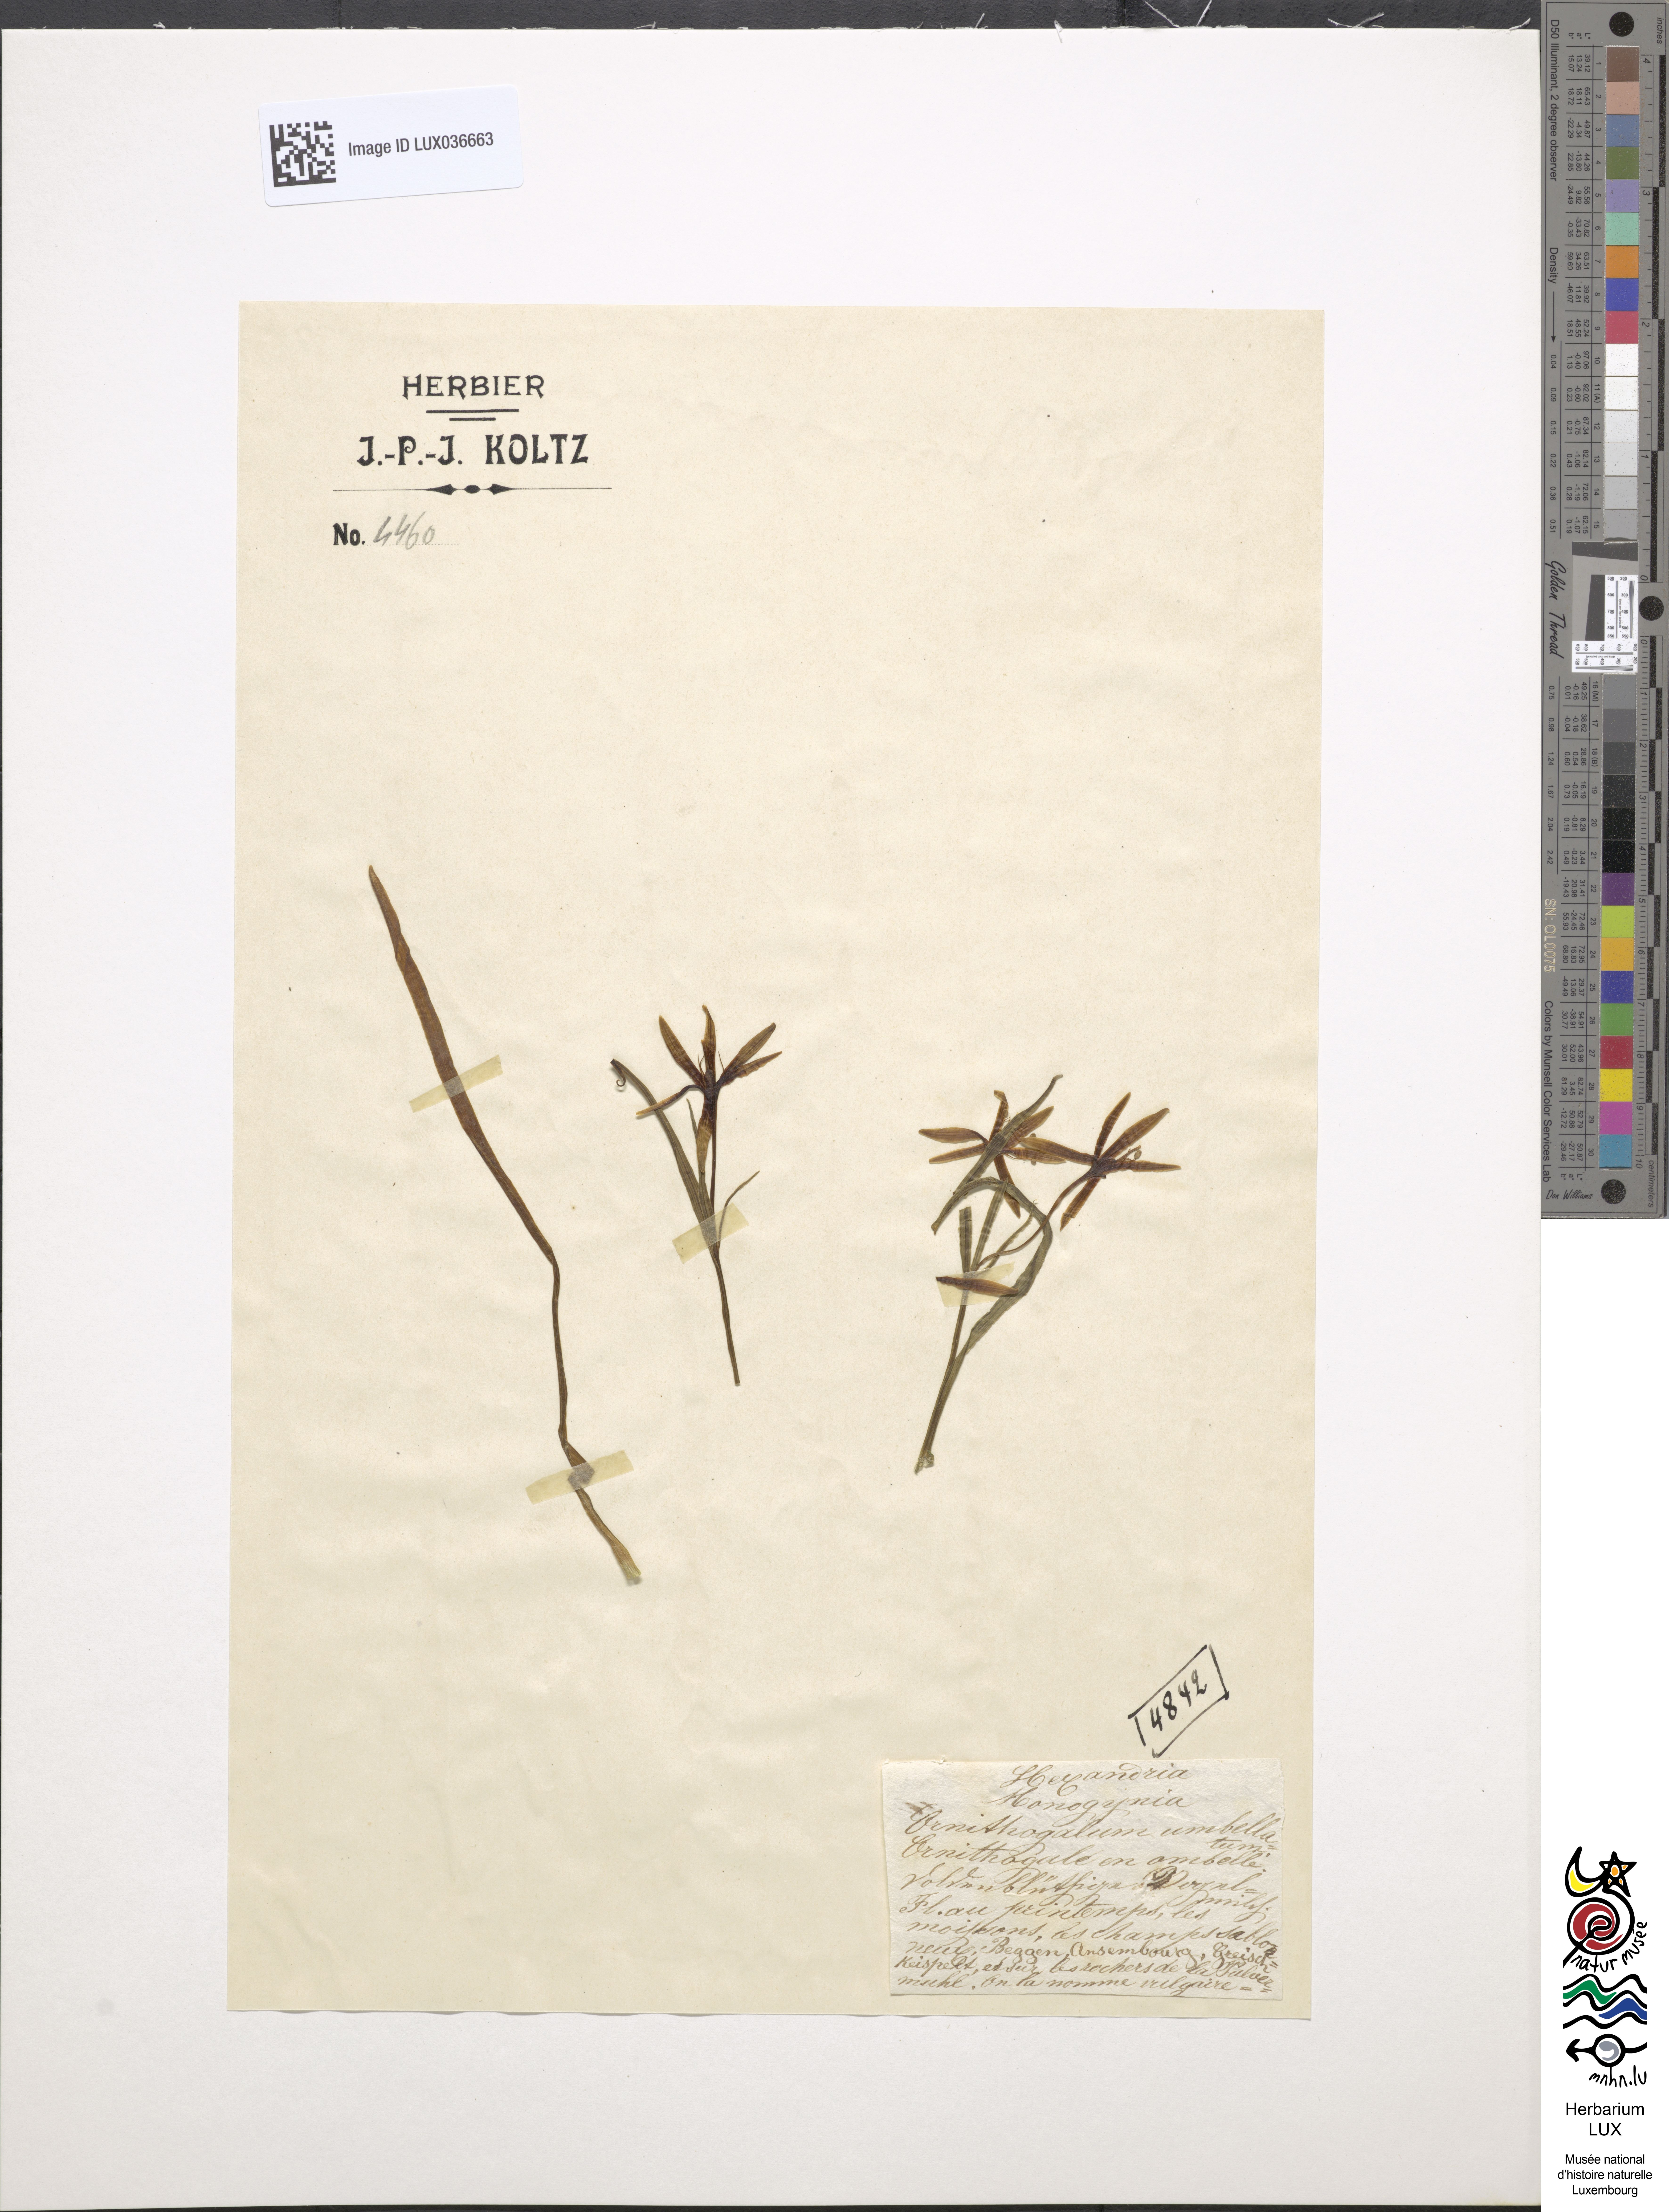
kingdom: Plantae
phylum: Tracheophyta
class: Liliopsida
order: Asparagales
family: Asparagaceae
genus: Ornithogalum
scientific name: Ornithogalum umbellatum
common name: Garden star-of-bethlehem
